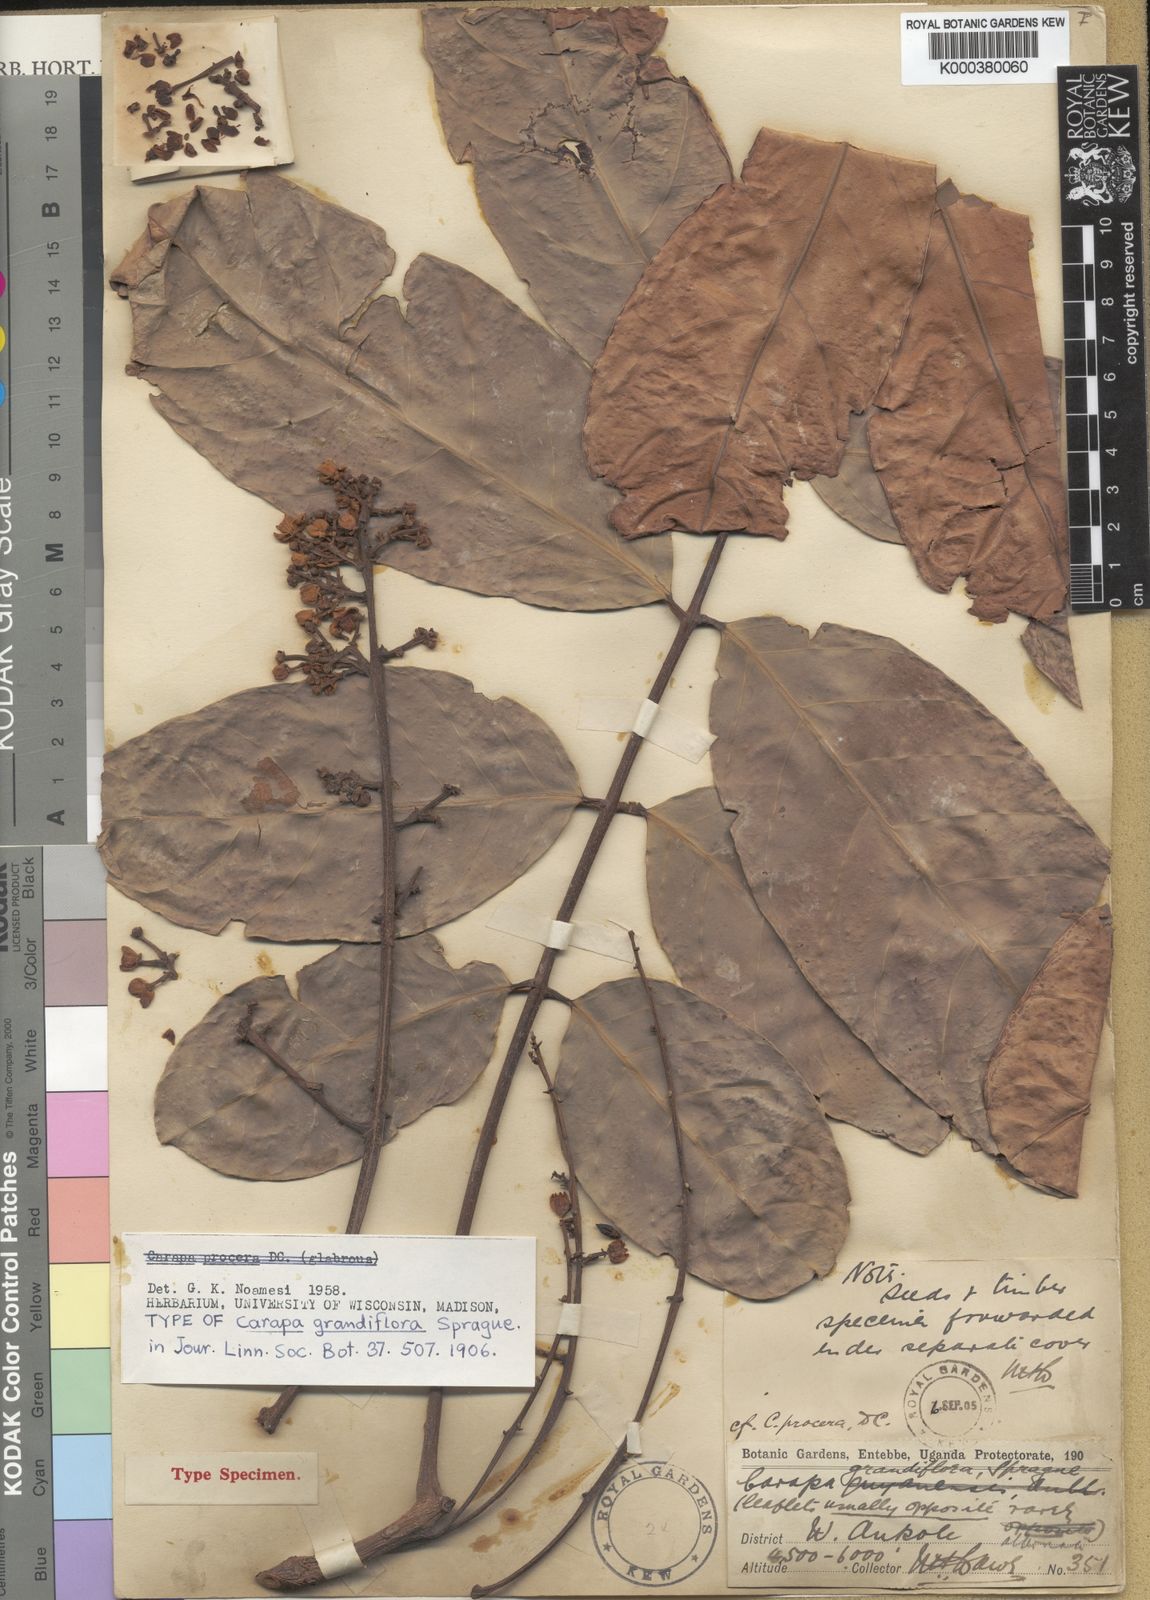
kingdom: Plantae
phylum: Tracheophyta
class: Magnoliopsida
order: Sapindales
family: Meliaceae
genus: Carapa
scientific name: Carapa procera
